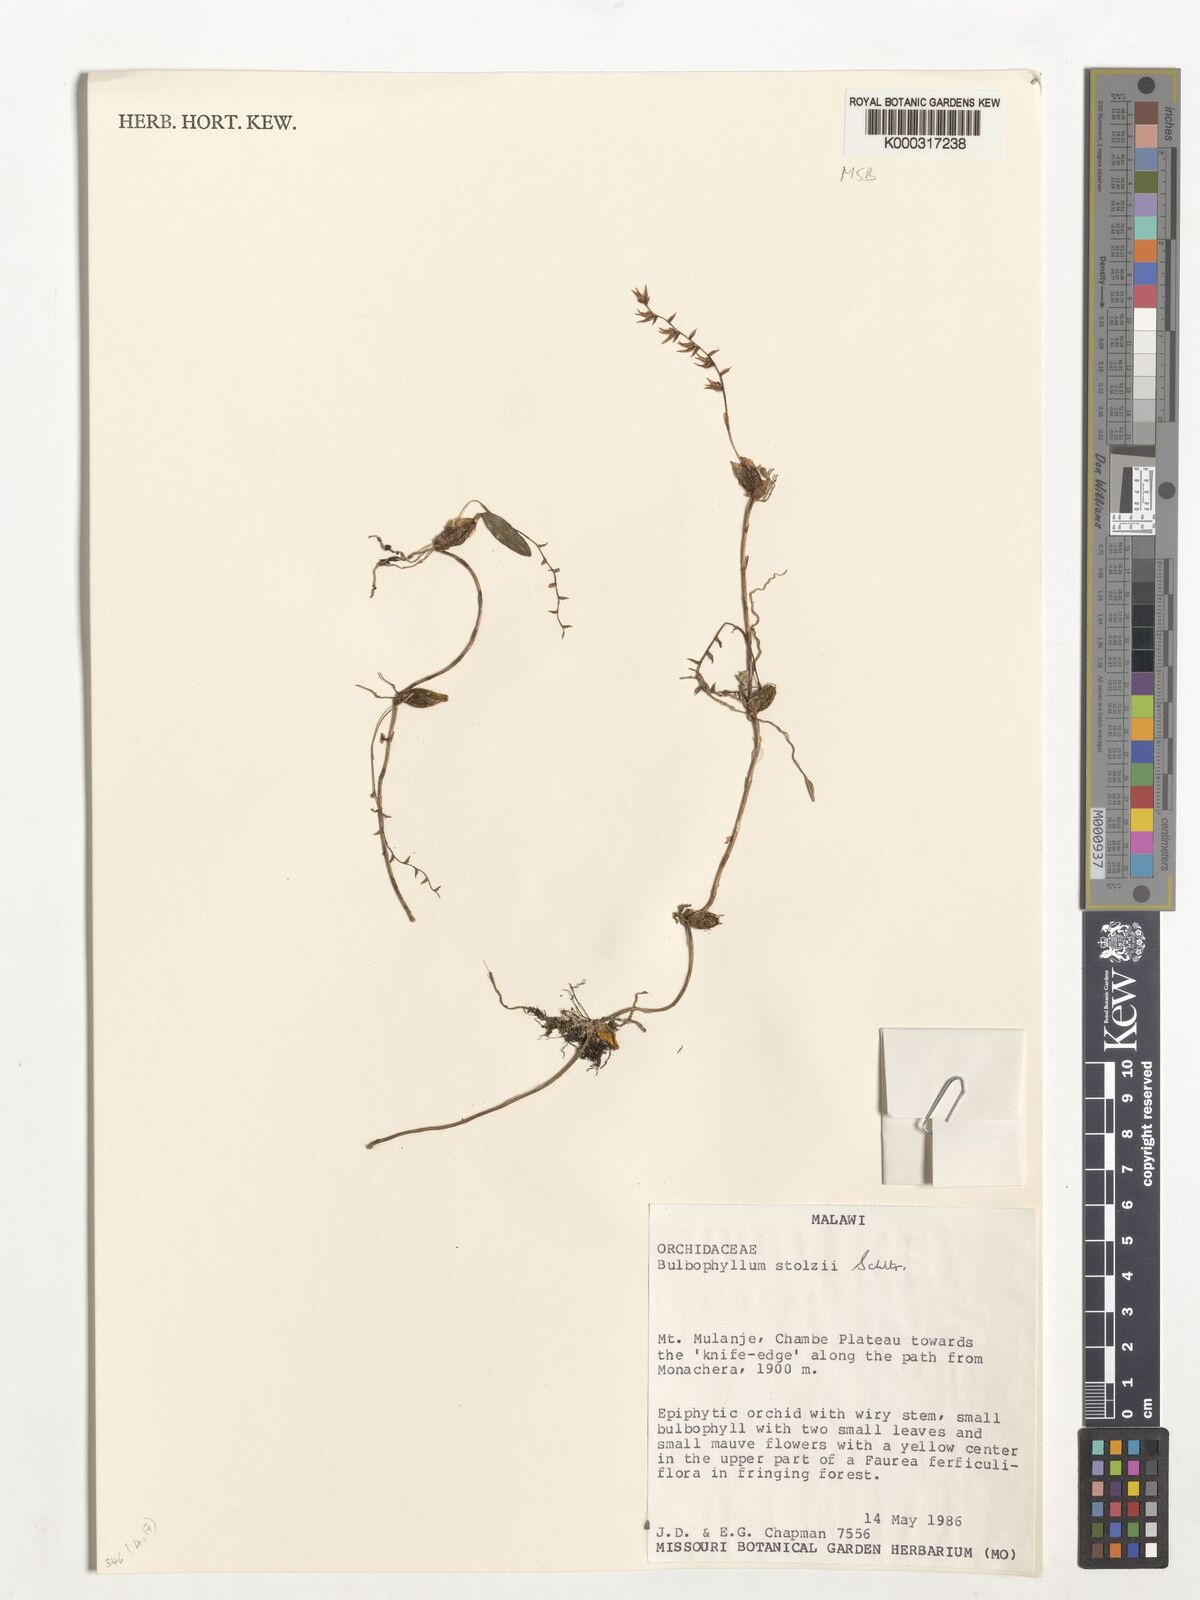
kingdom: Plantae
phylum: Tracheophyta
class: Liliopsida
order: Asparagales
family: Orchidaceae
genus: Bulbophyllum
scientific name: Bulbophyllum stolzii
